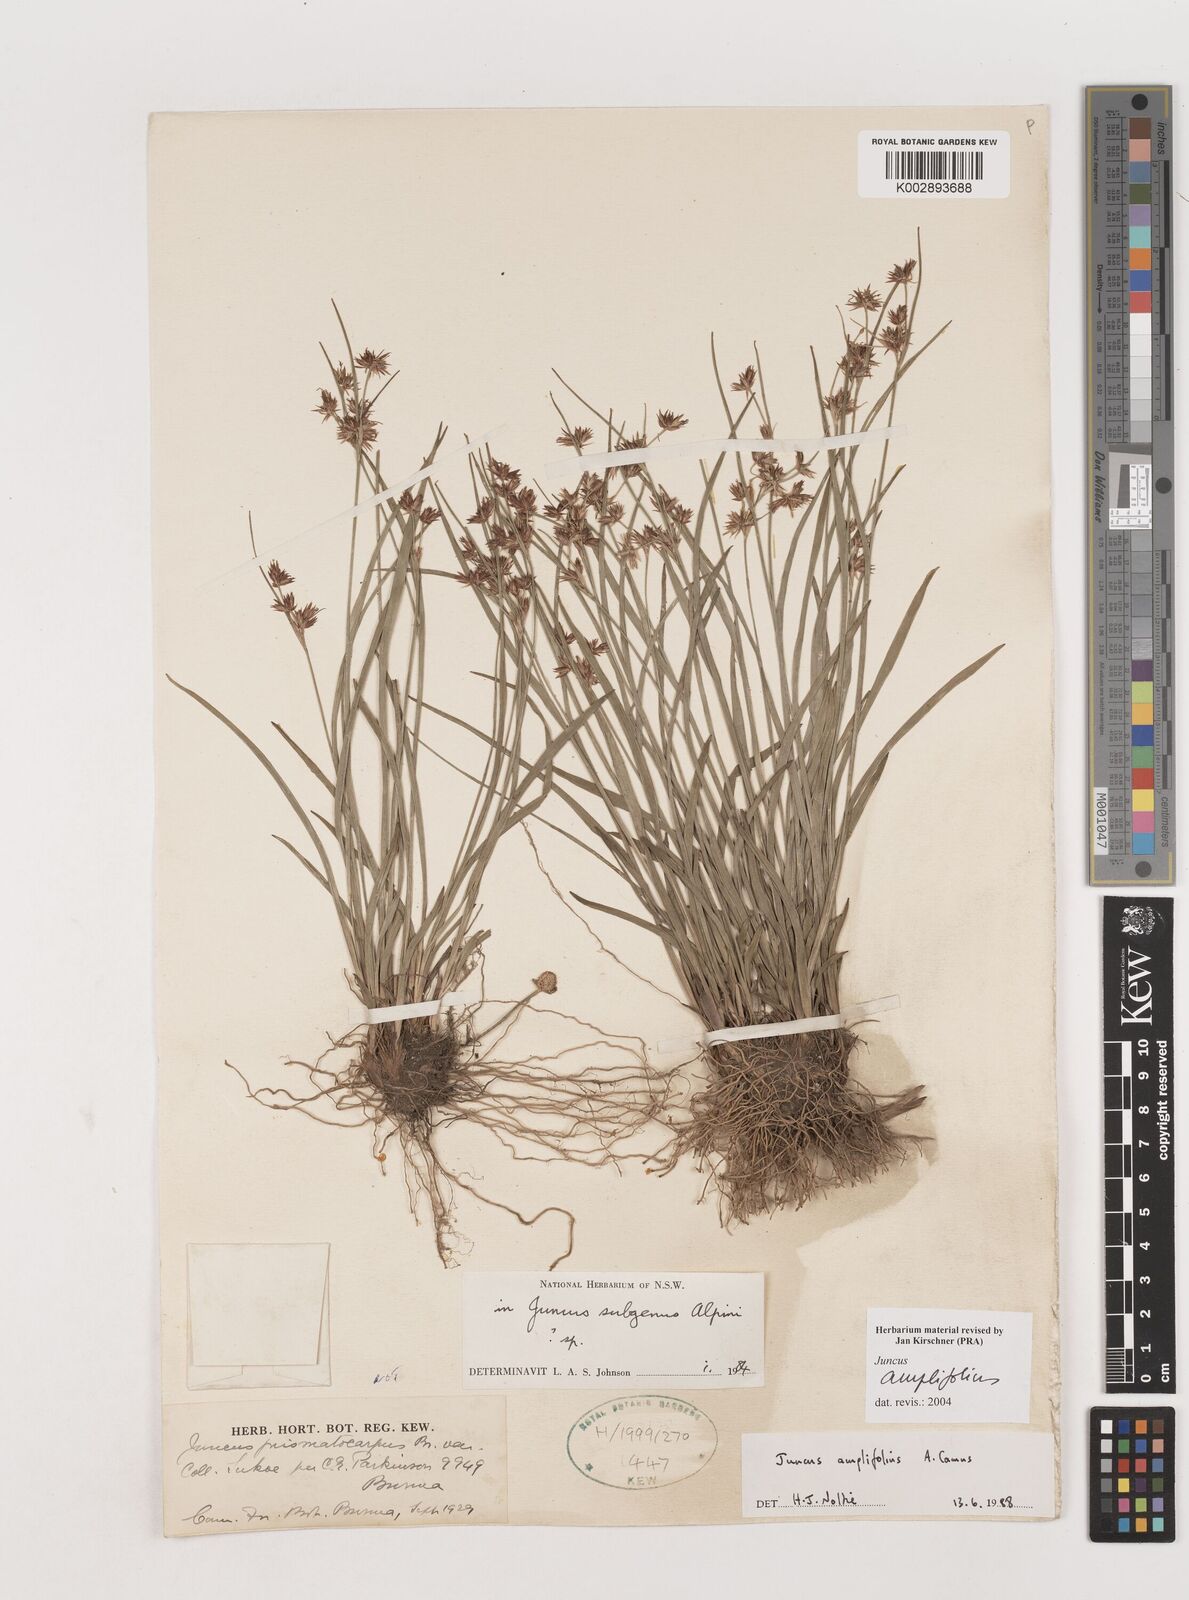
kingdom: Plantae
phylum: Tracheophyta
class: Liliopsida
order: Poales
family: Juncaceae
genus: Juncus
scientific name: Juncus amplifolius
